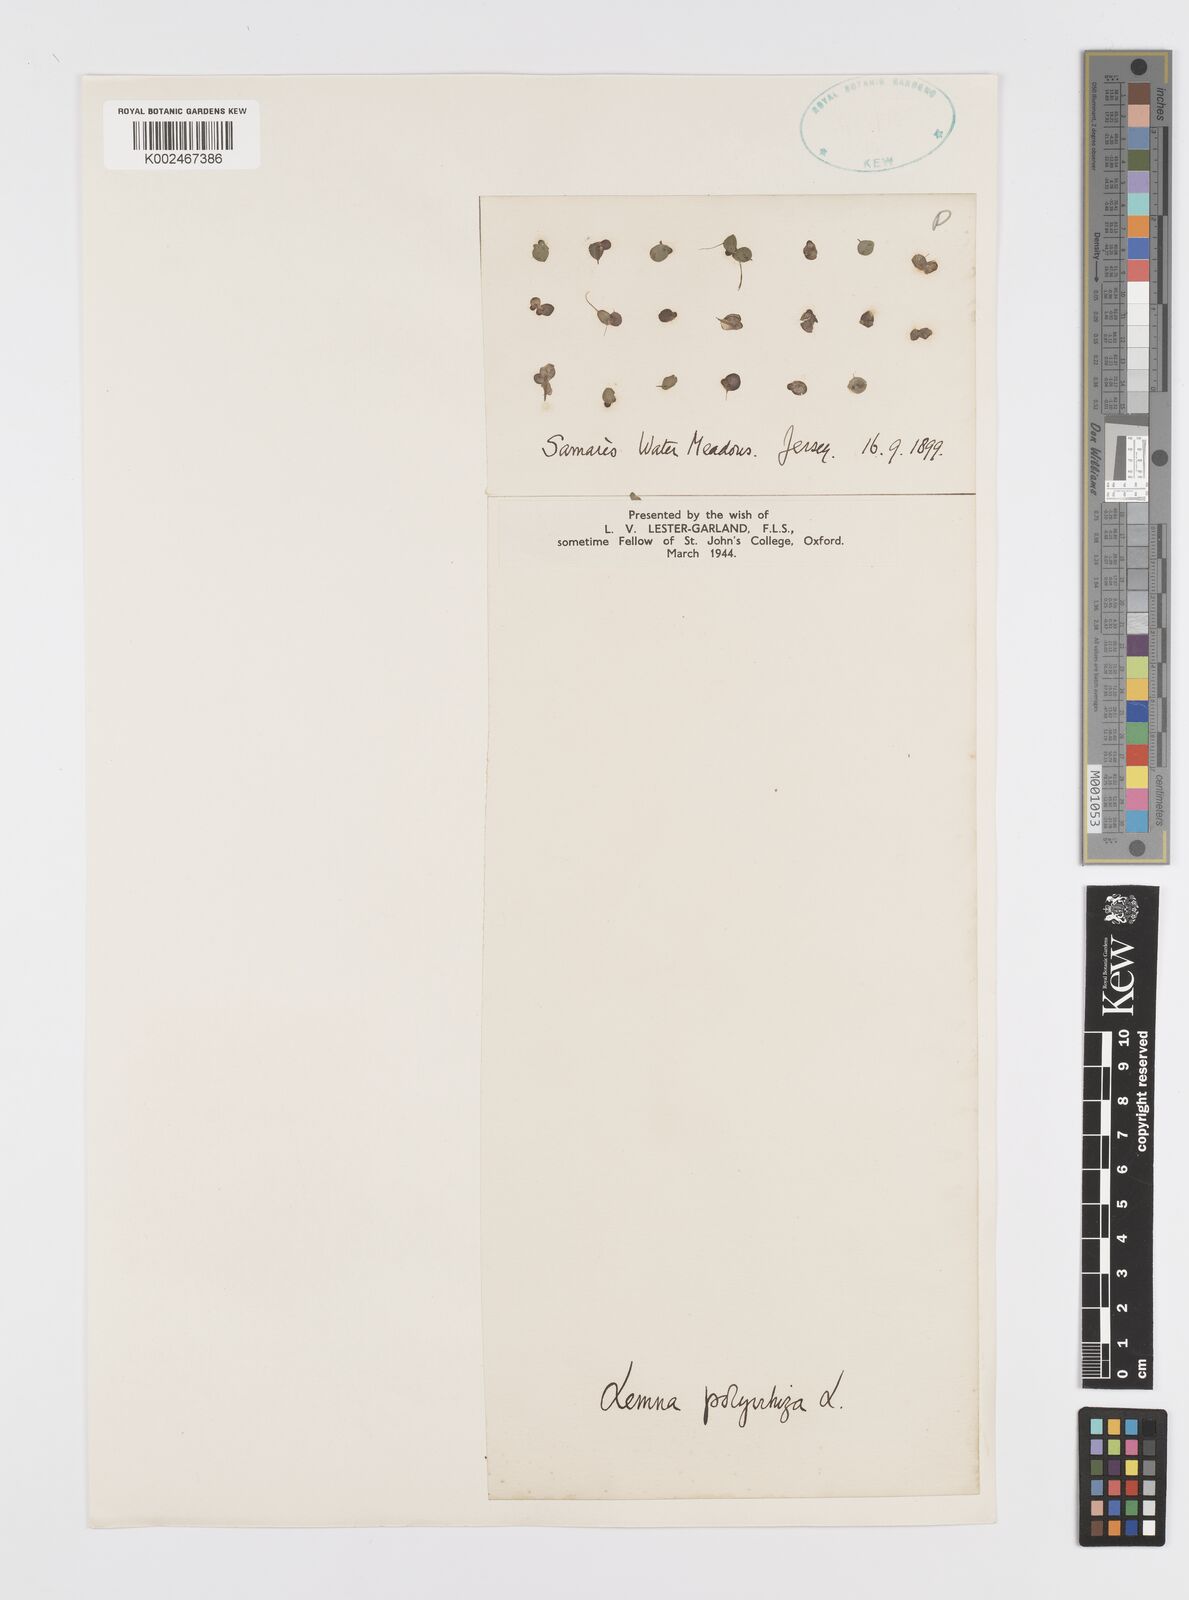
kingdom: Plantae
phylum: Tracheophyta
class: Liliopsida
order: Alismatales
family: Araceae
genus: Spirodela
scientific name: Spirodela polyrhiza
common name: Great duckweed
